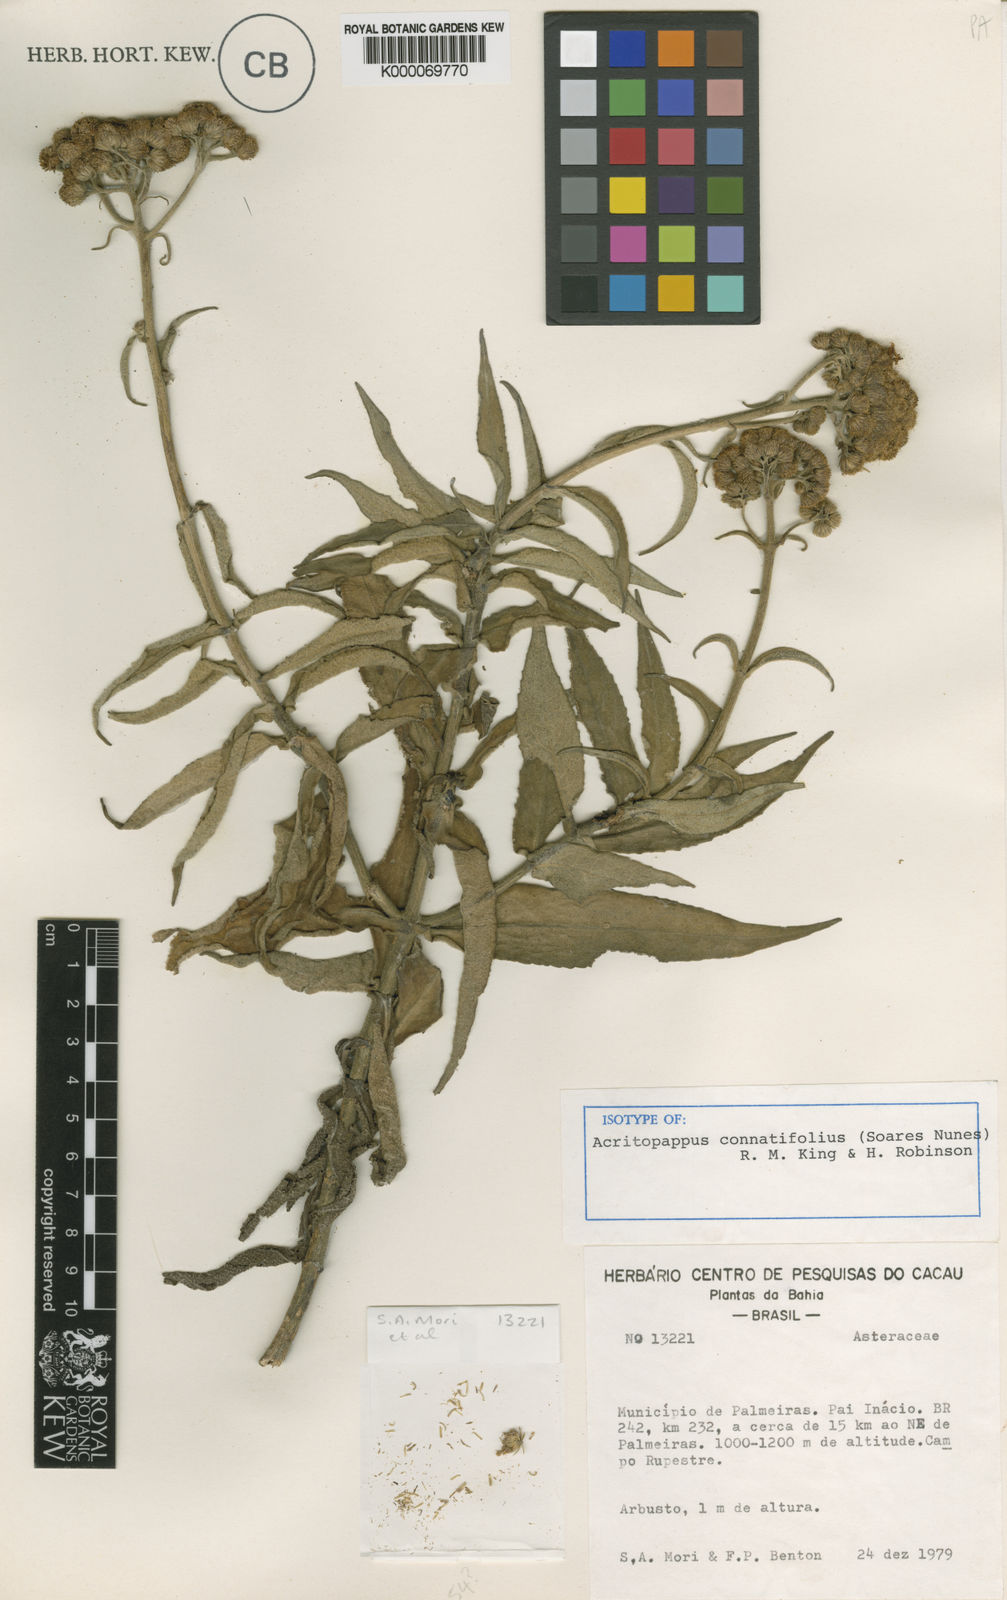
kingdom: Plantae
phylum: Tracheophyta
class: Magnoliopsida
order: Asterales
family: Asteraceae
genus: Acritopappus
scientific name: Acritopappus connatifolius
